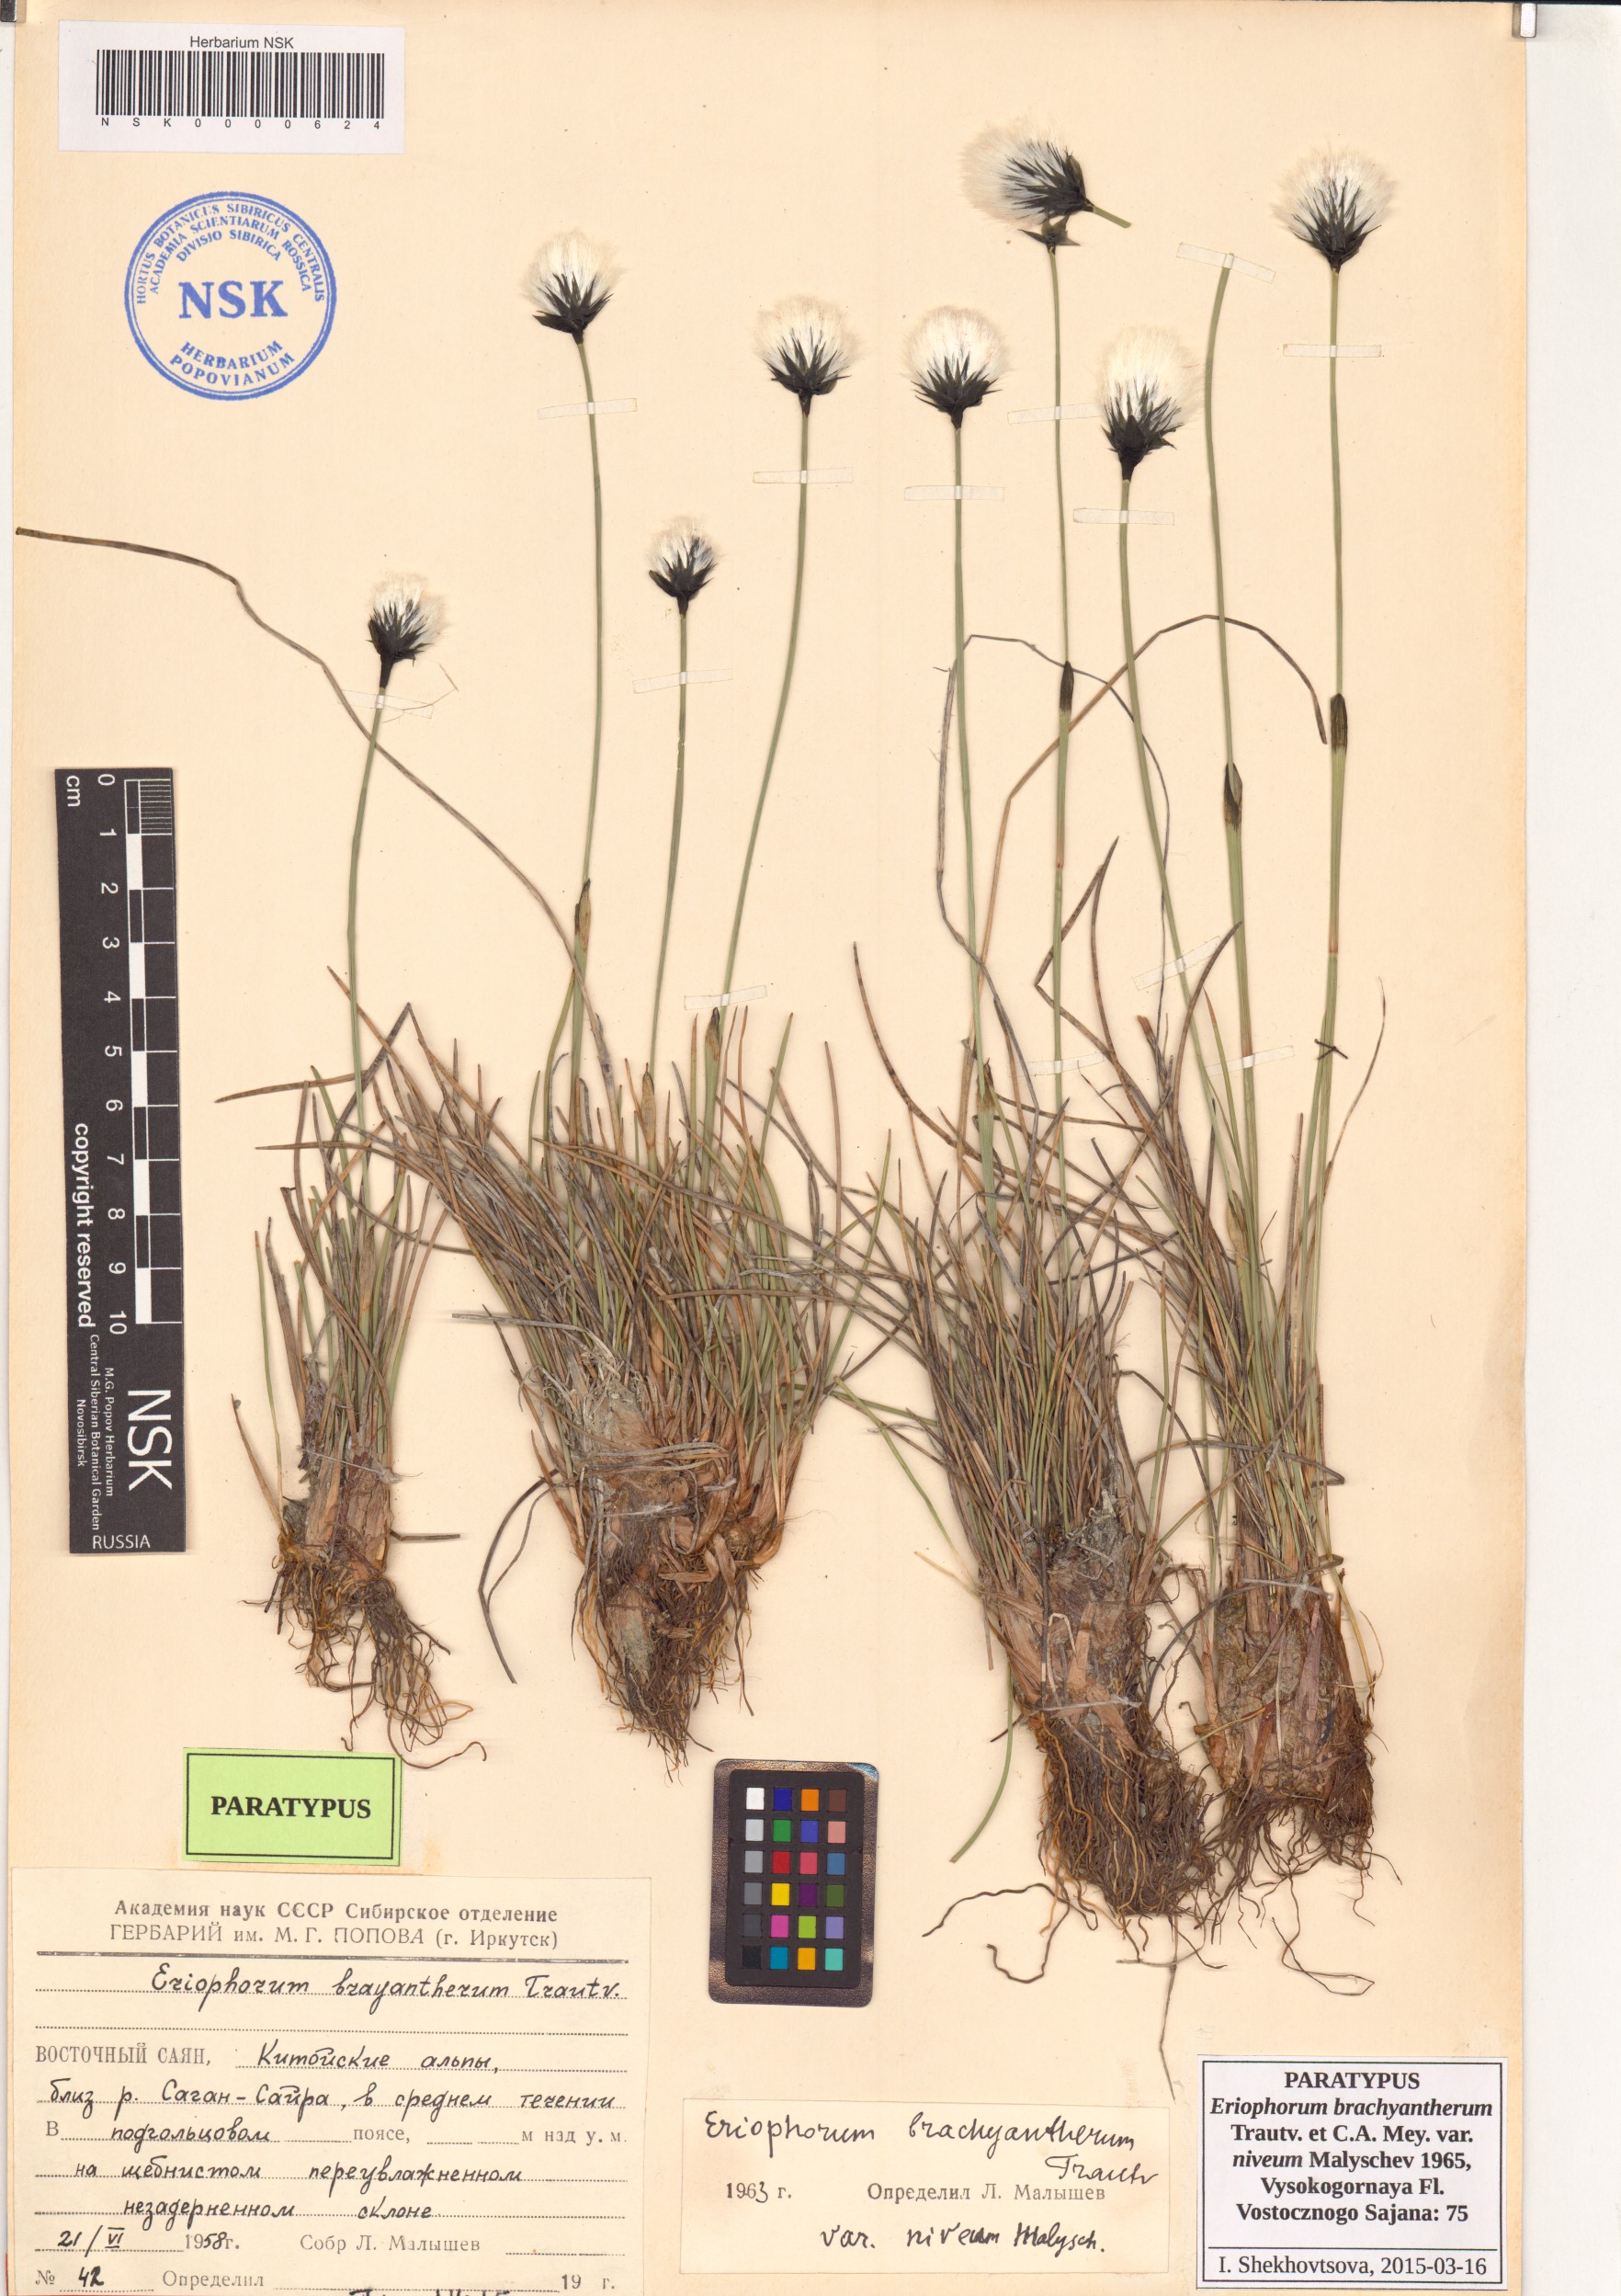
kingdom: Plantae
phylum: Tracheophyta
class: Liliopsida
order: Poales
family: Cyperaceae
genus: Eriophorum
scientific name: Eriophorum brachyantherum
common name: Closed-sheathed cottongrass
